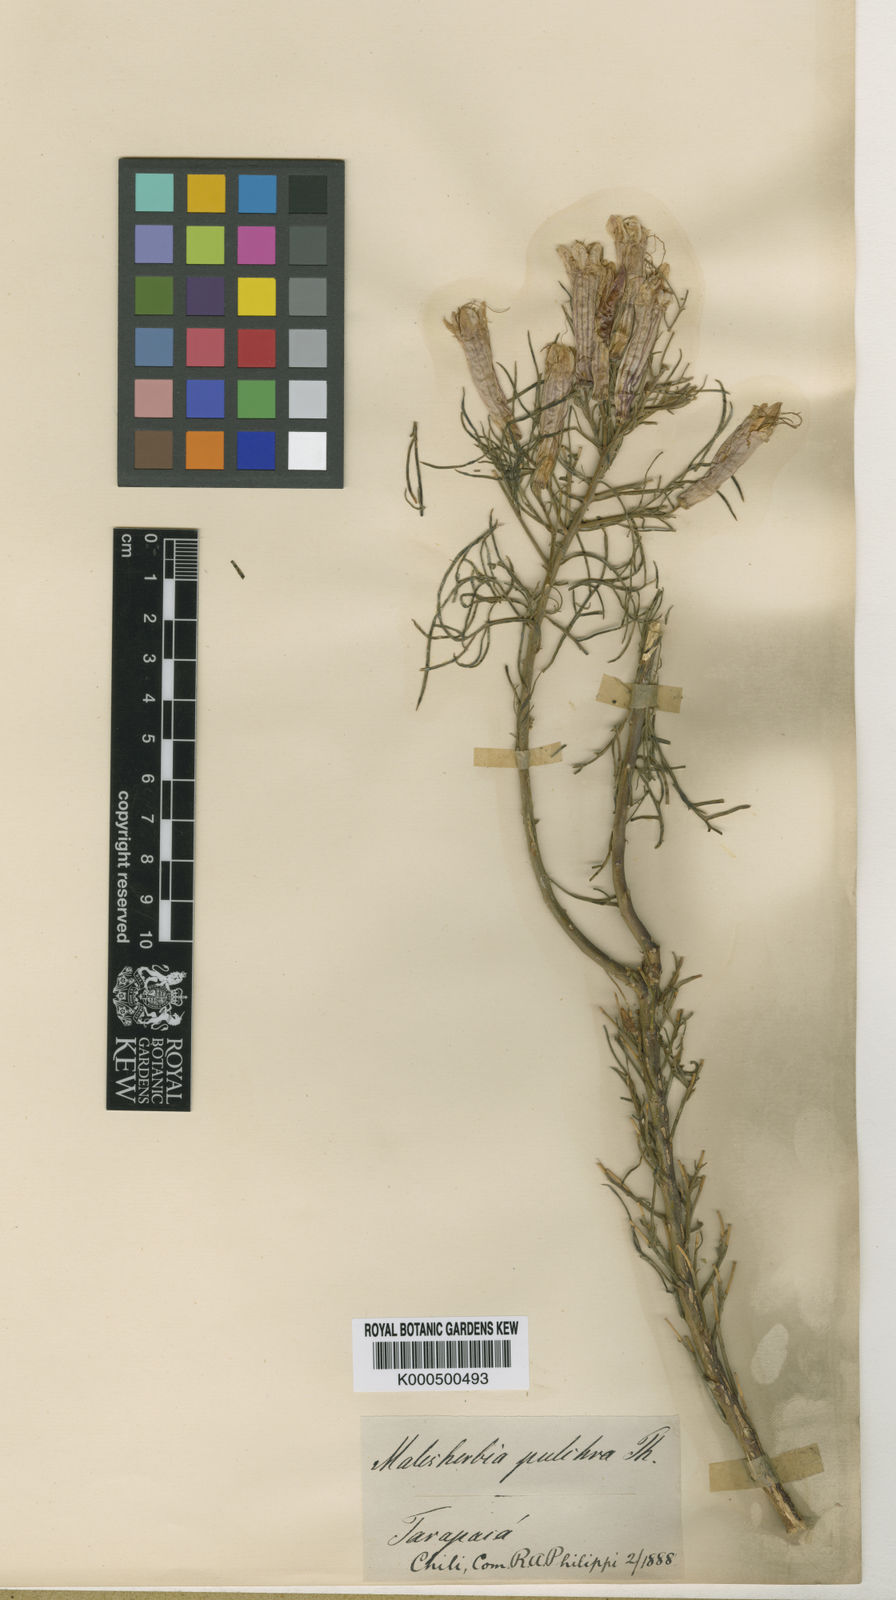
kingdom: Plantae
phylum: Tracheophyta
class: Magnoliopsida
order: Malpighiales
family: Malesherbiaceae
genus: Malesherbia
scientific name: Malesherbia tenuifolia
